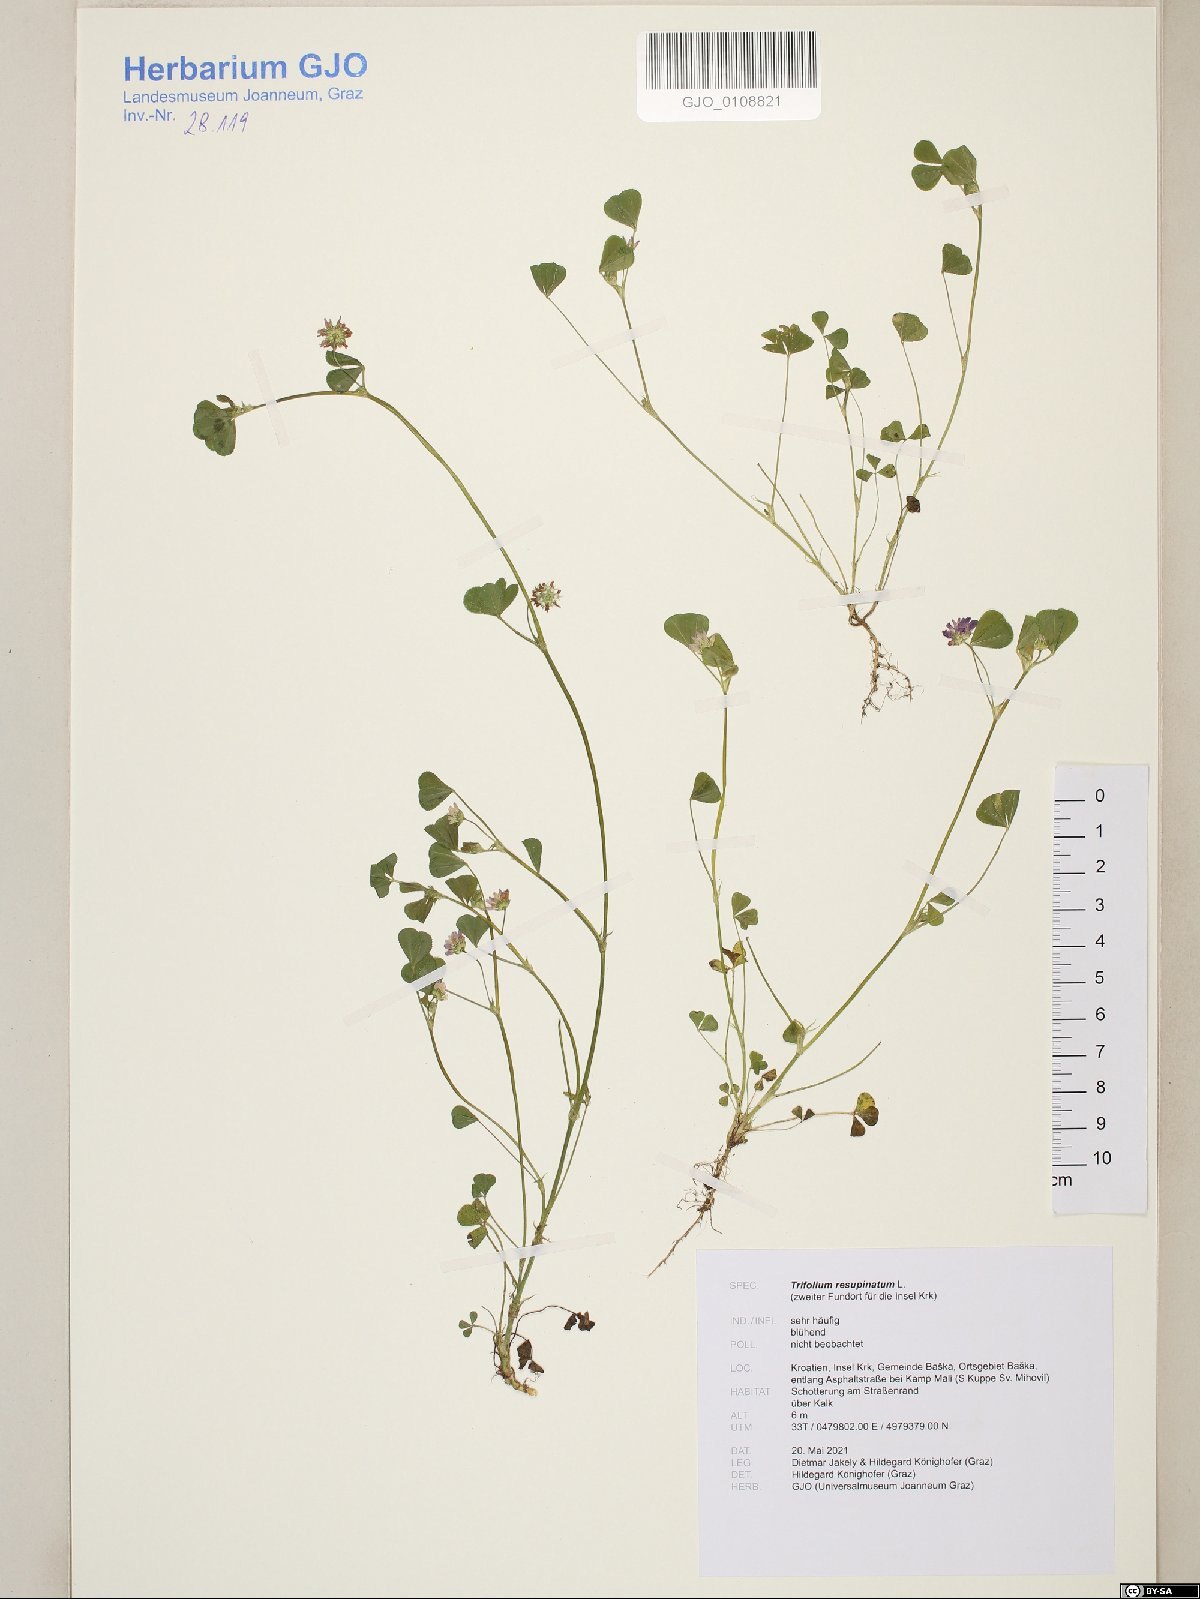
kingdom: Plantae
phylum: Tracheophyta
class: Magnoliopsida
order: Fabales
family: Fabaceae
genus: Trifolium
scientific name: Trifolium resupinatum
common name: Reversed clover
